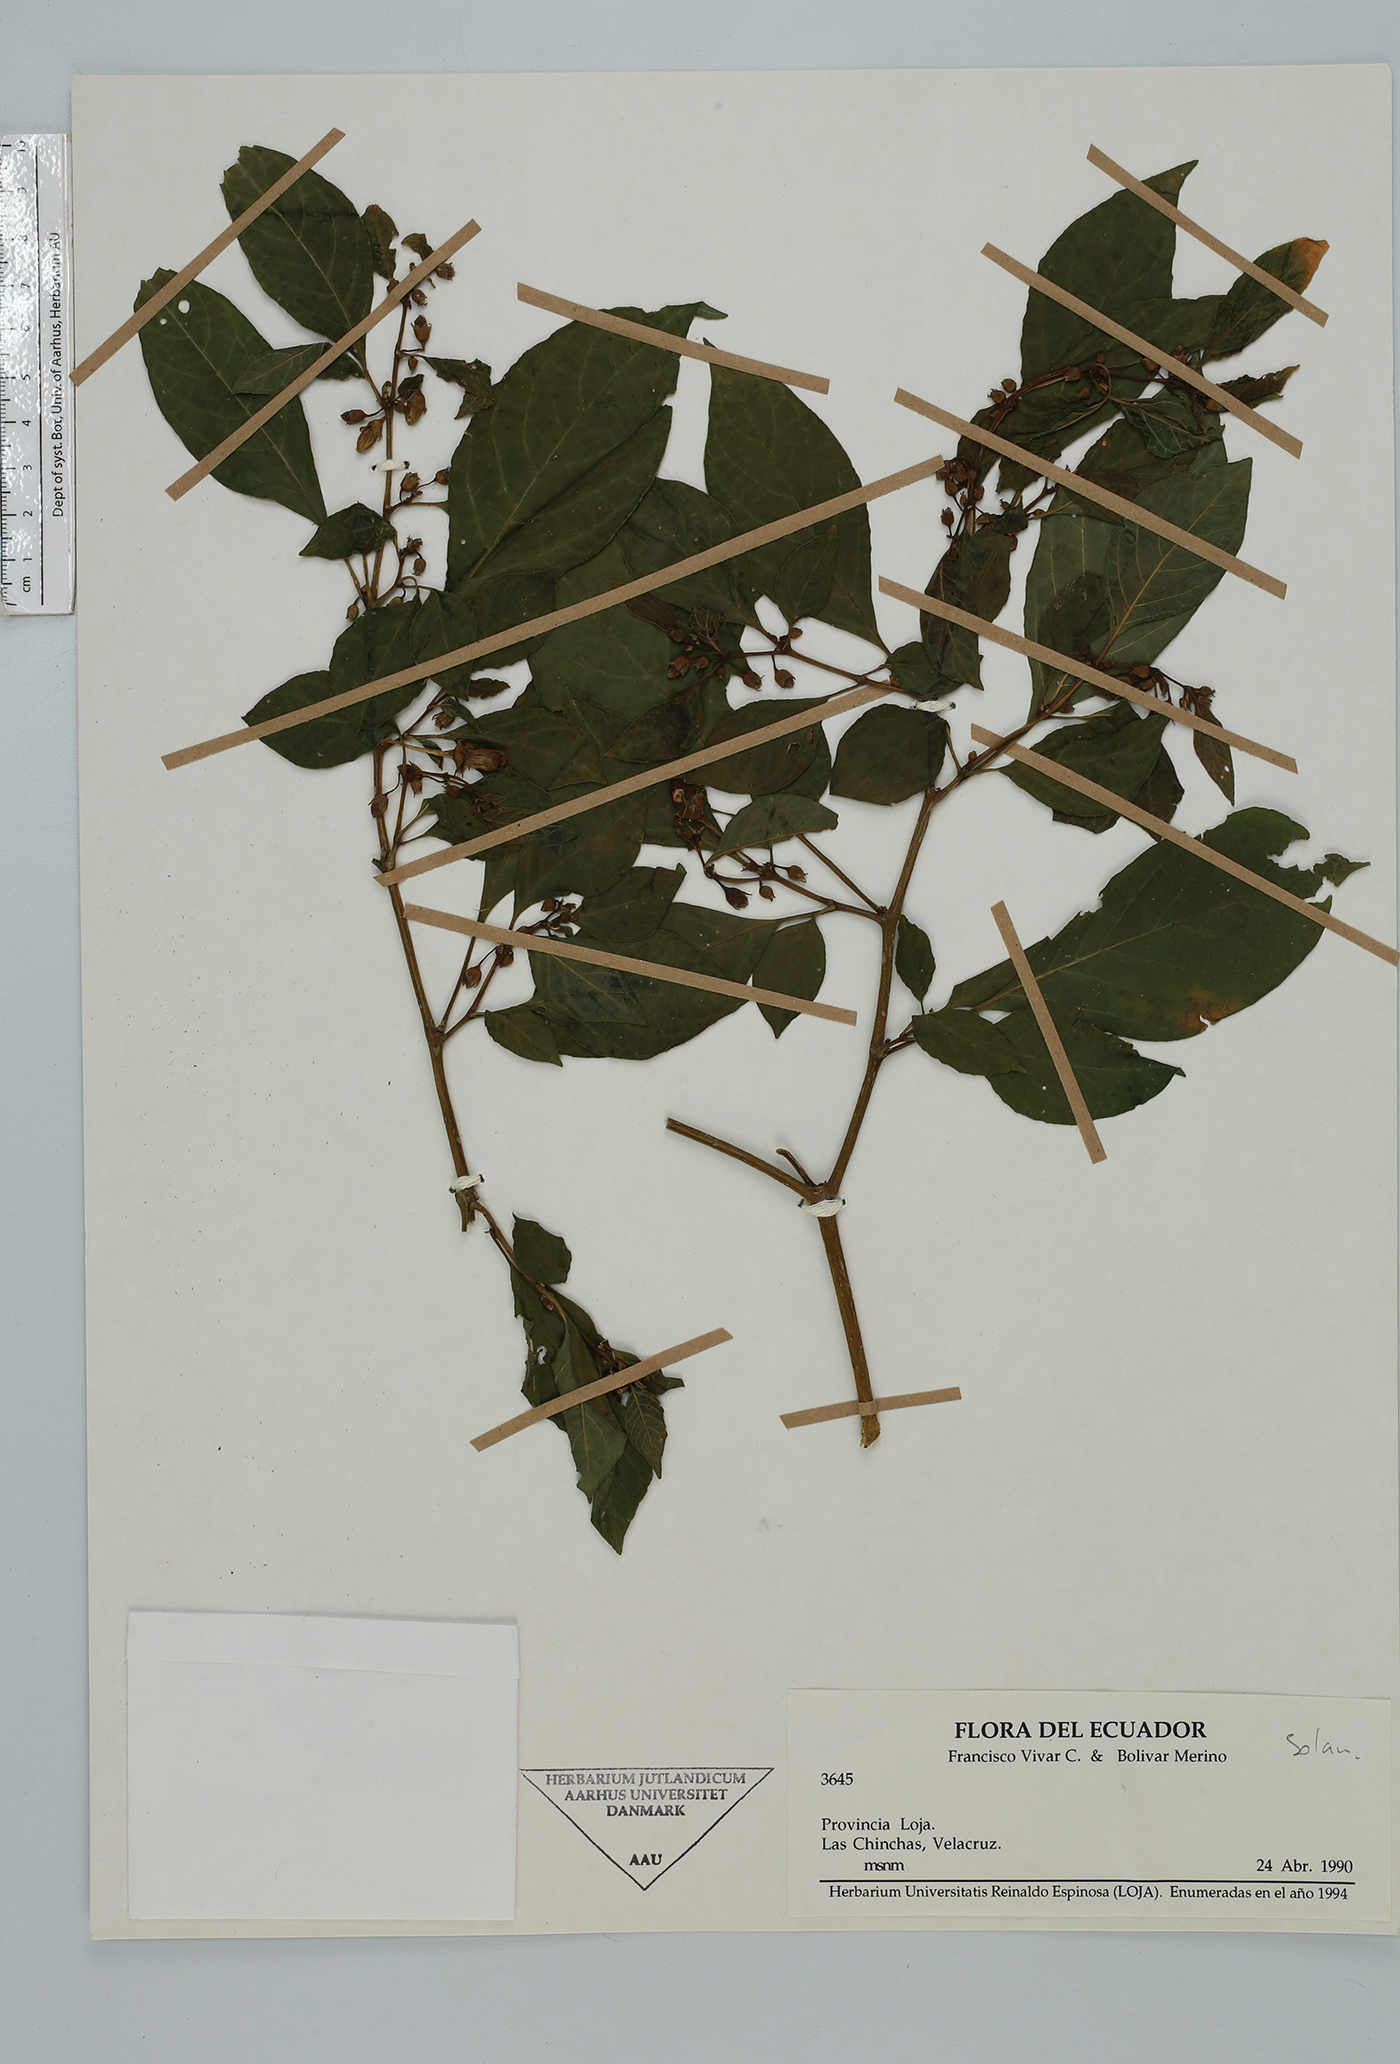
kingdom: Plantae
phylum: Tracheophyta
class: Magnoliopsida
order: Solanales
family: Solanaceae
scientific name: Solanaceae
